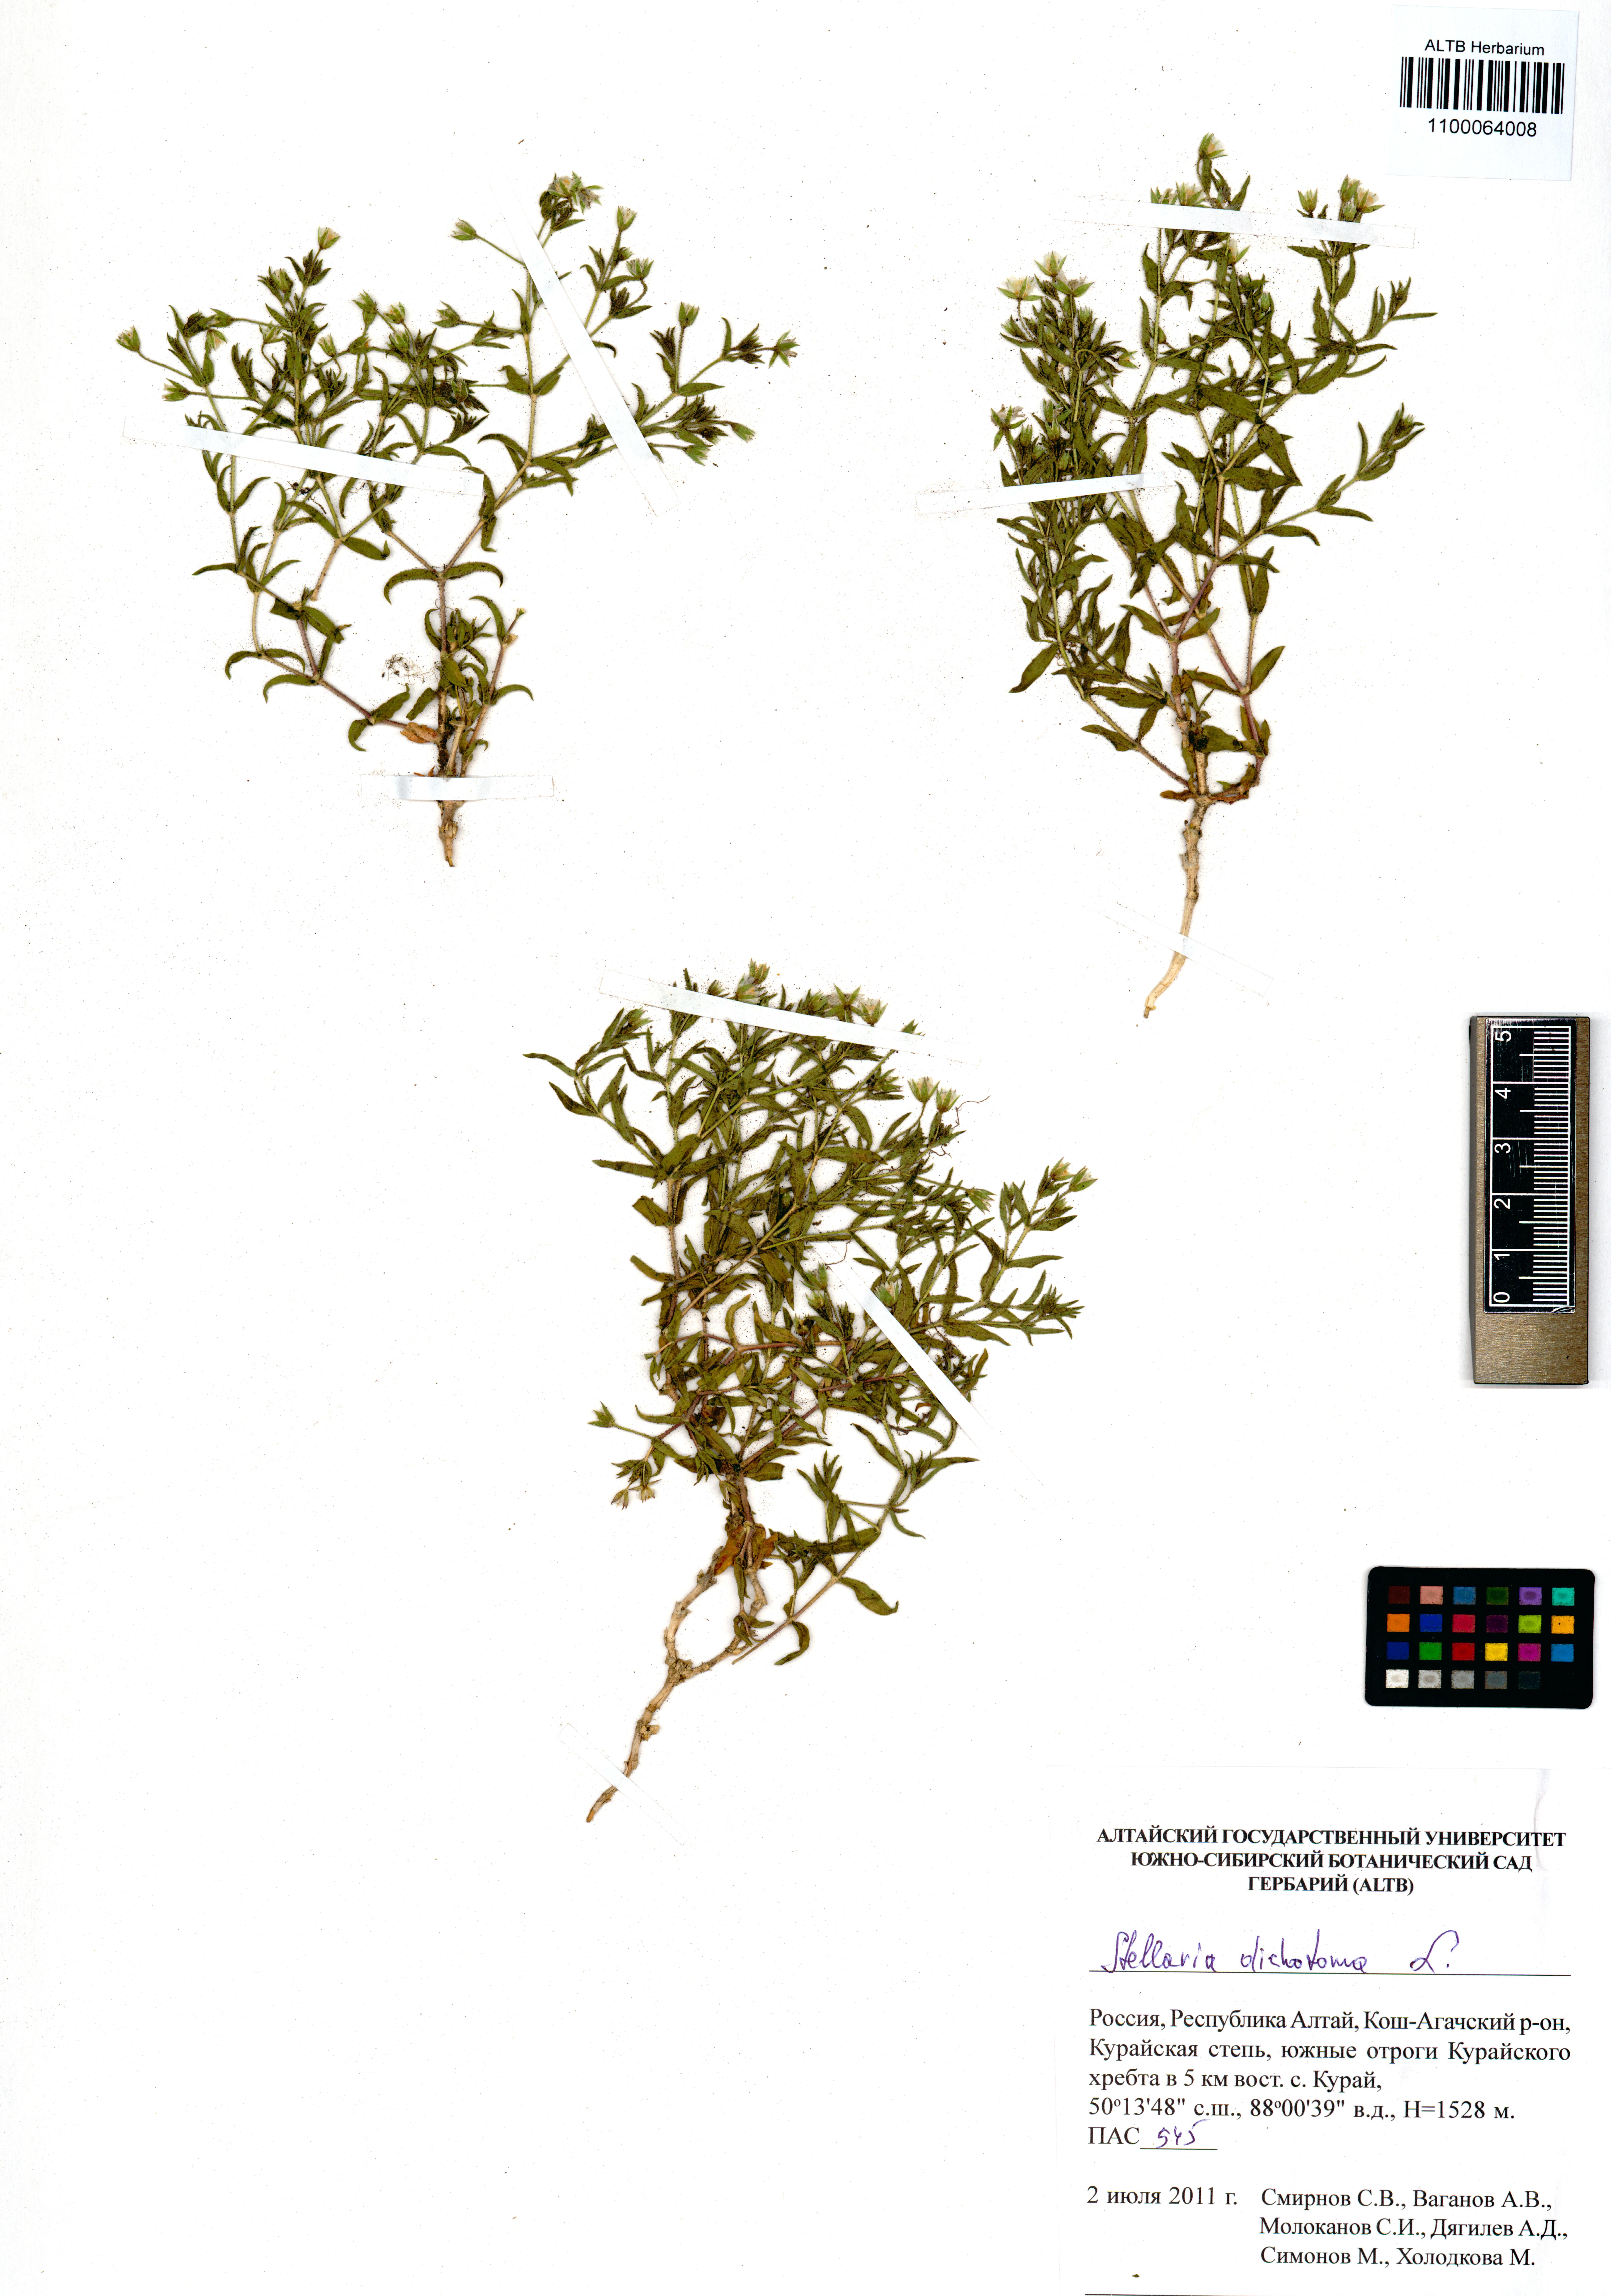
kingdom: Plantae
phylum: Tracheophyta
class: Magnoliopsida
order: Caryophyllales
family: Caryophyllaceae
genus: Mesostemma
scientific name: Mesostemma dichotomum
